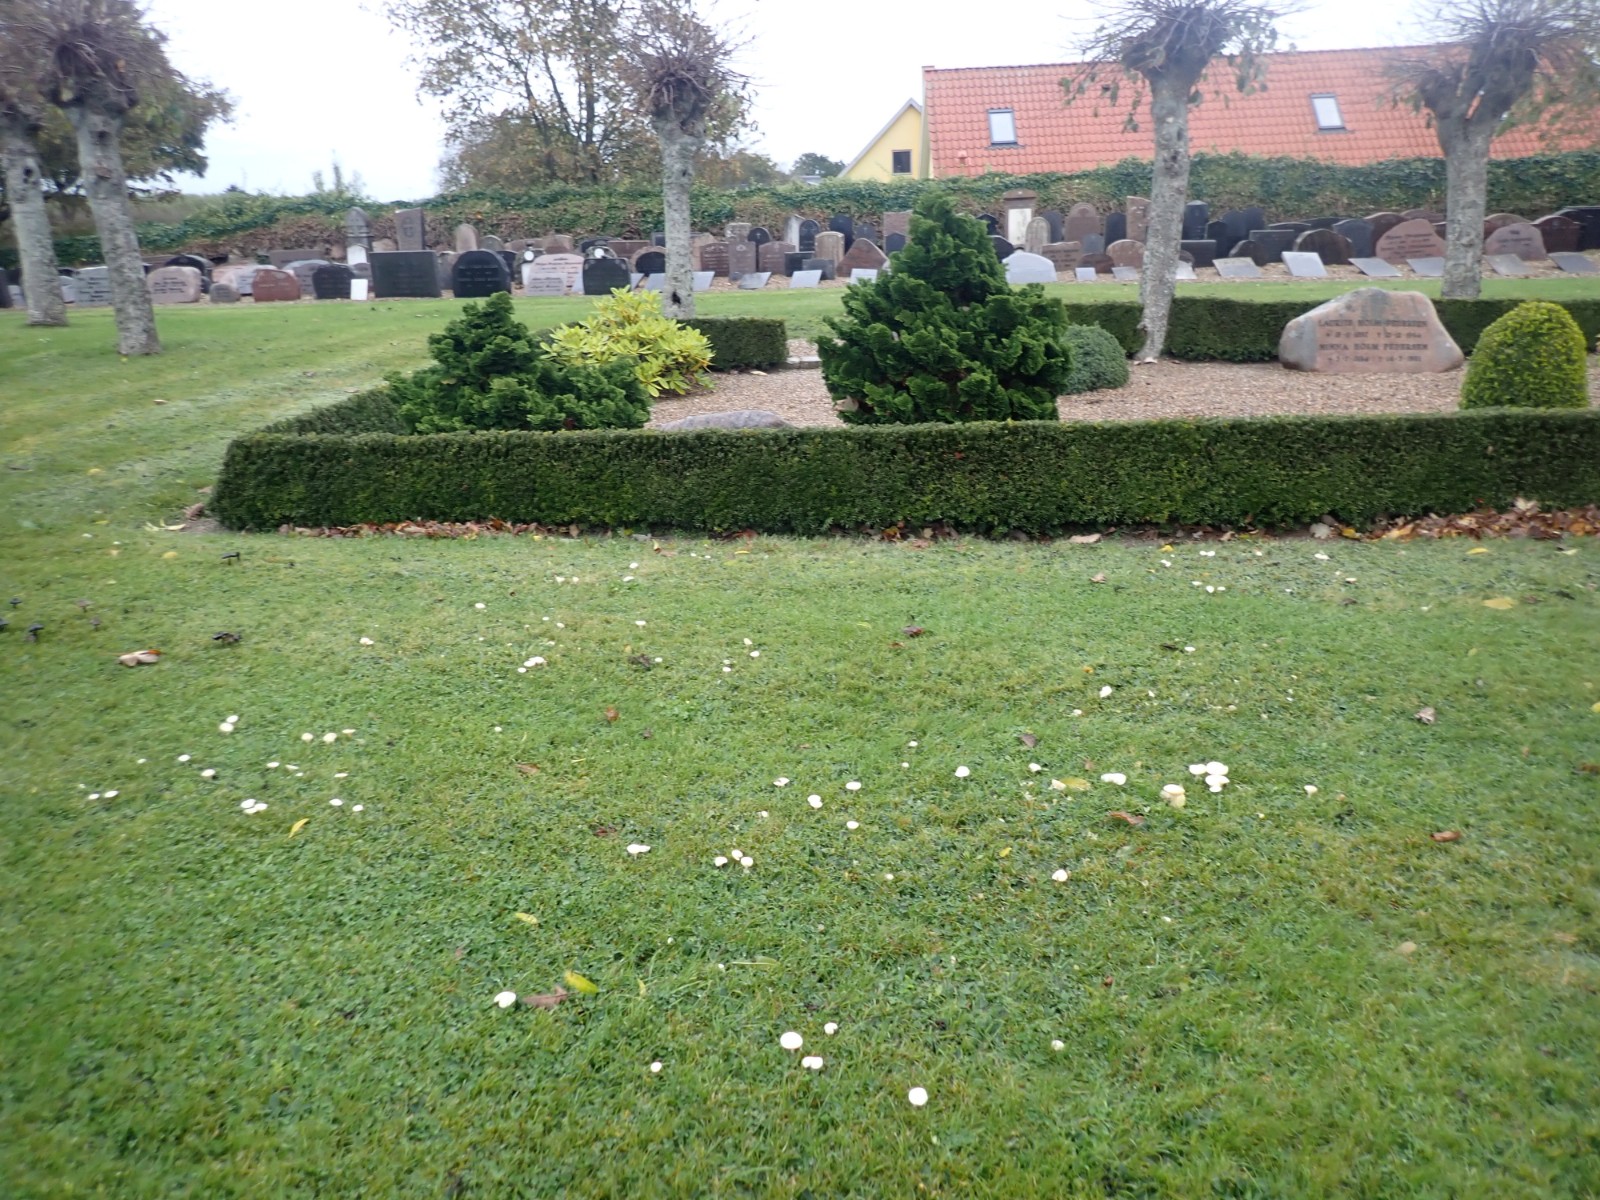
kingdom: Fungi
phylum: Basidiomycota
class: Agaricomycetes
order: Agaricales
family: Hygrophoraceae
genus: Cuphophyllus
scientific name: Cuphophyllus
